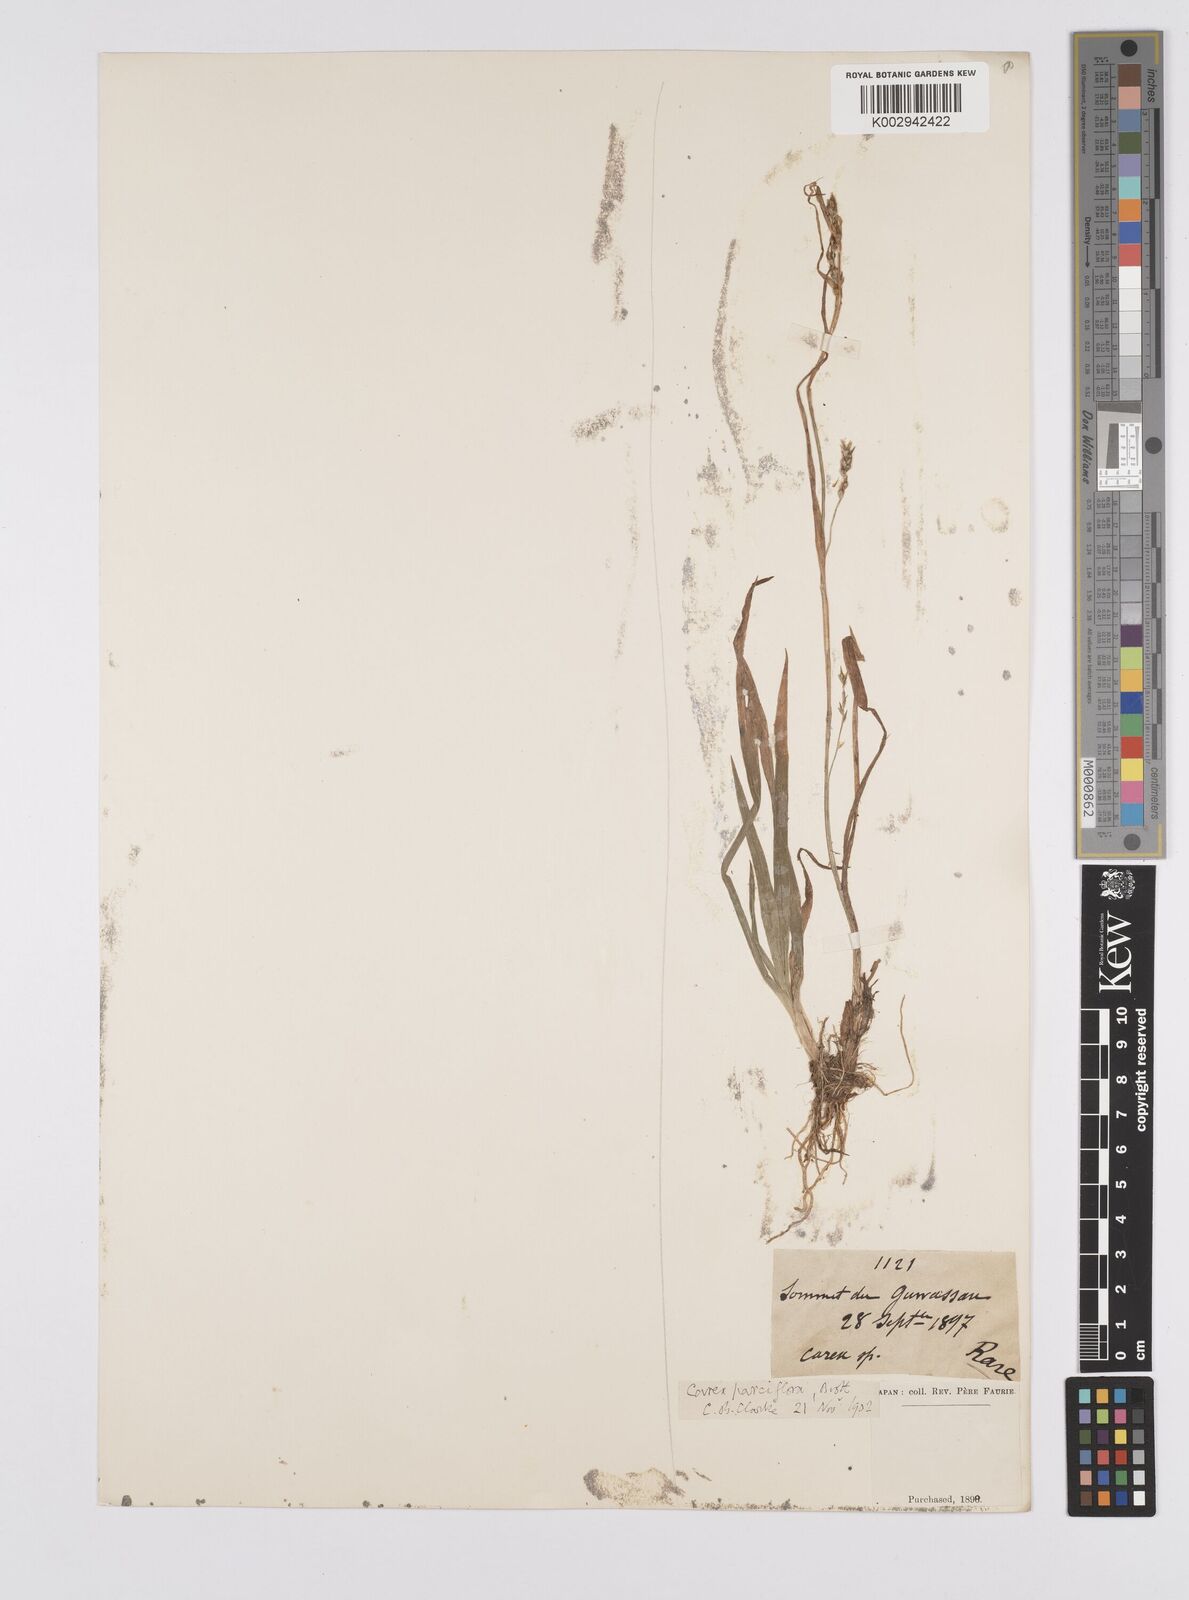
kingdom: Plantae
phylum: Tracheophyta
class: Liliopsida
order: Poales
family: Cyperaceae
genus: Carex
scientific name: Carex parciflora
